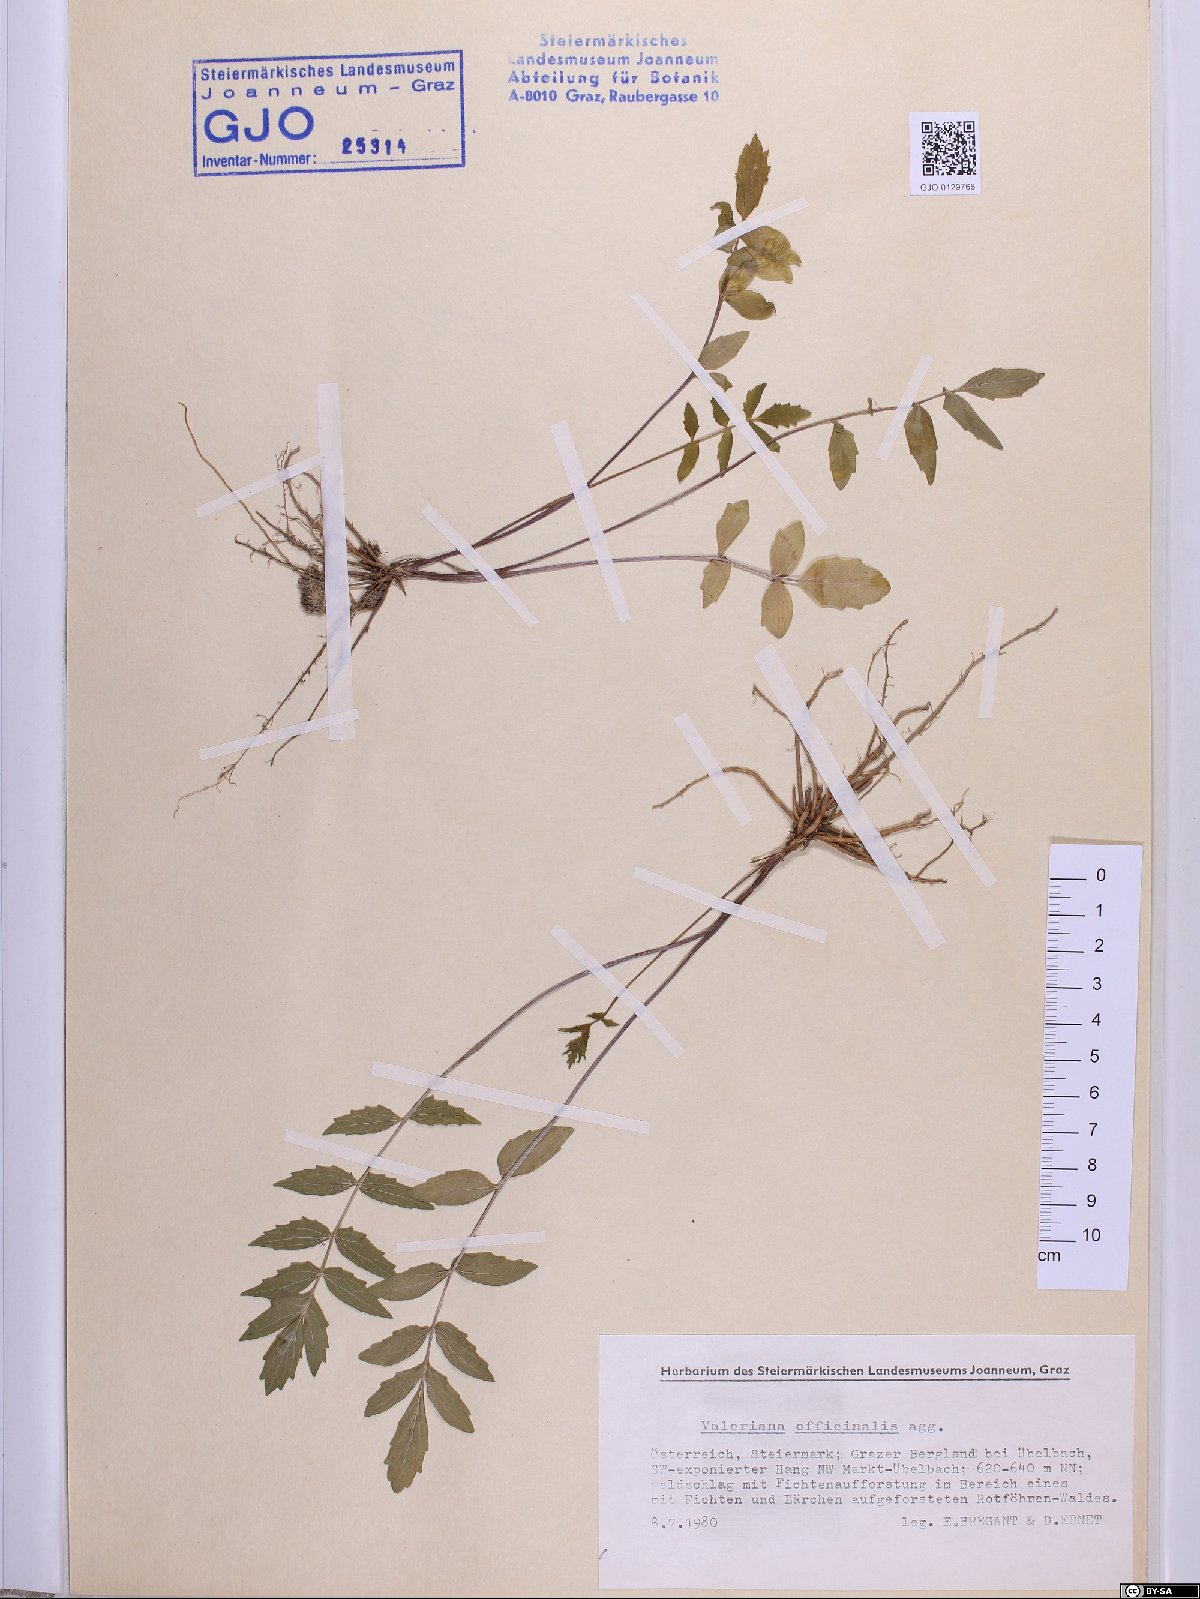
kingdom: Plantae
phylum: Tracheophyta
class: Magnoliopsida
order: Dipsacales
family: Caprifoliaceae
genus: Valeriana
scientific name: Valeriana officinalis
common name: Common valerian
